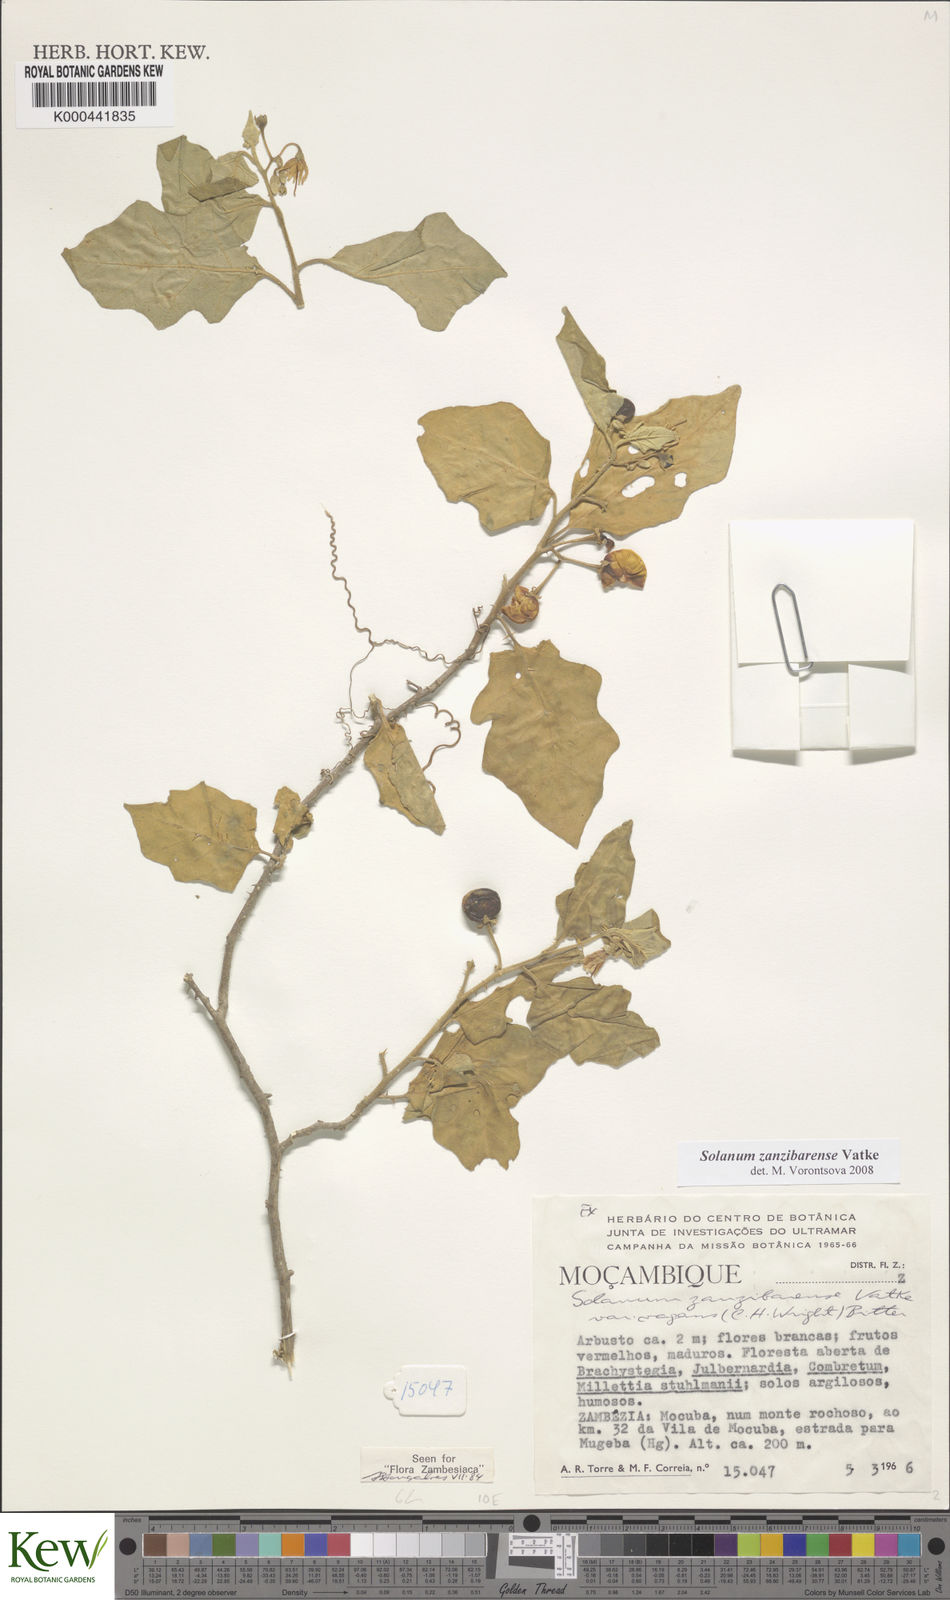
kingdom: Plantae
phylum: Tracheophyta
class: Magnoliopsida
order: Solanales
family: Solanaceae
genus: Solanum
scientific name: Solanum zanzibarense
